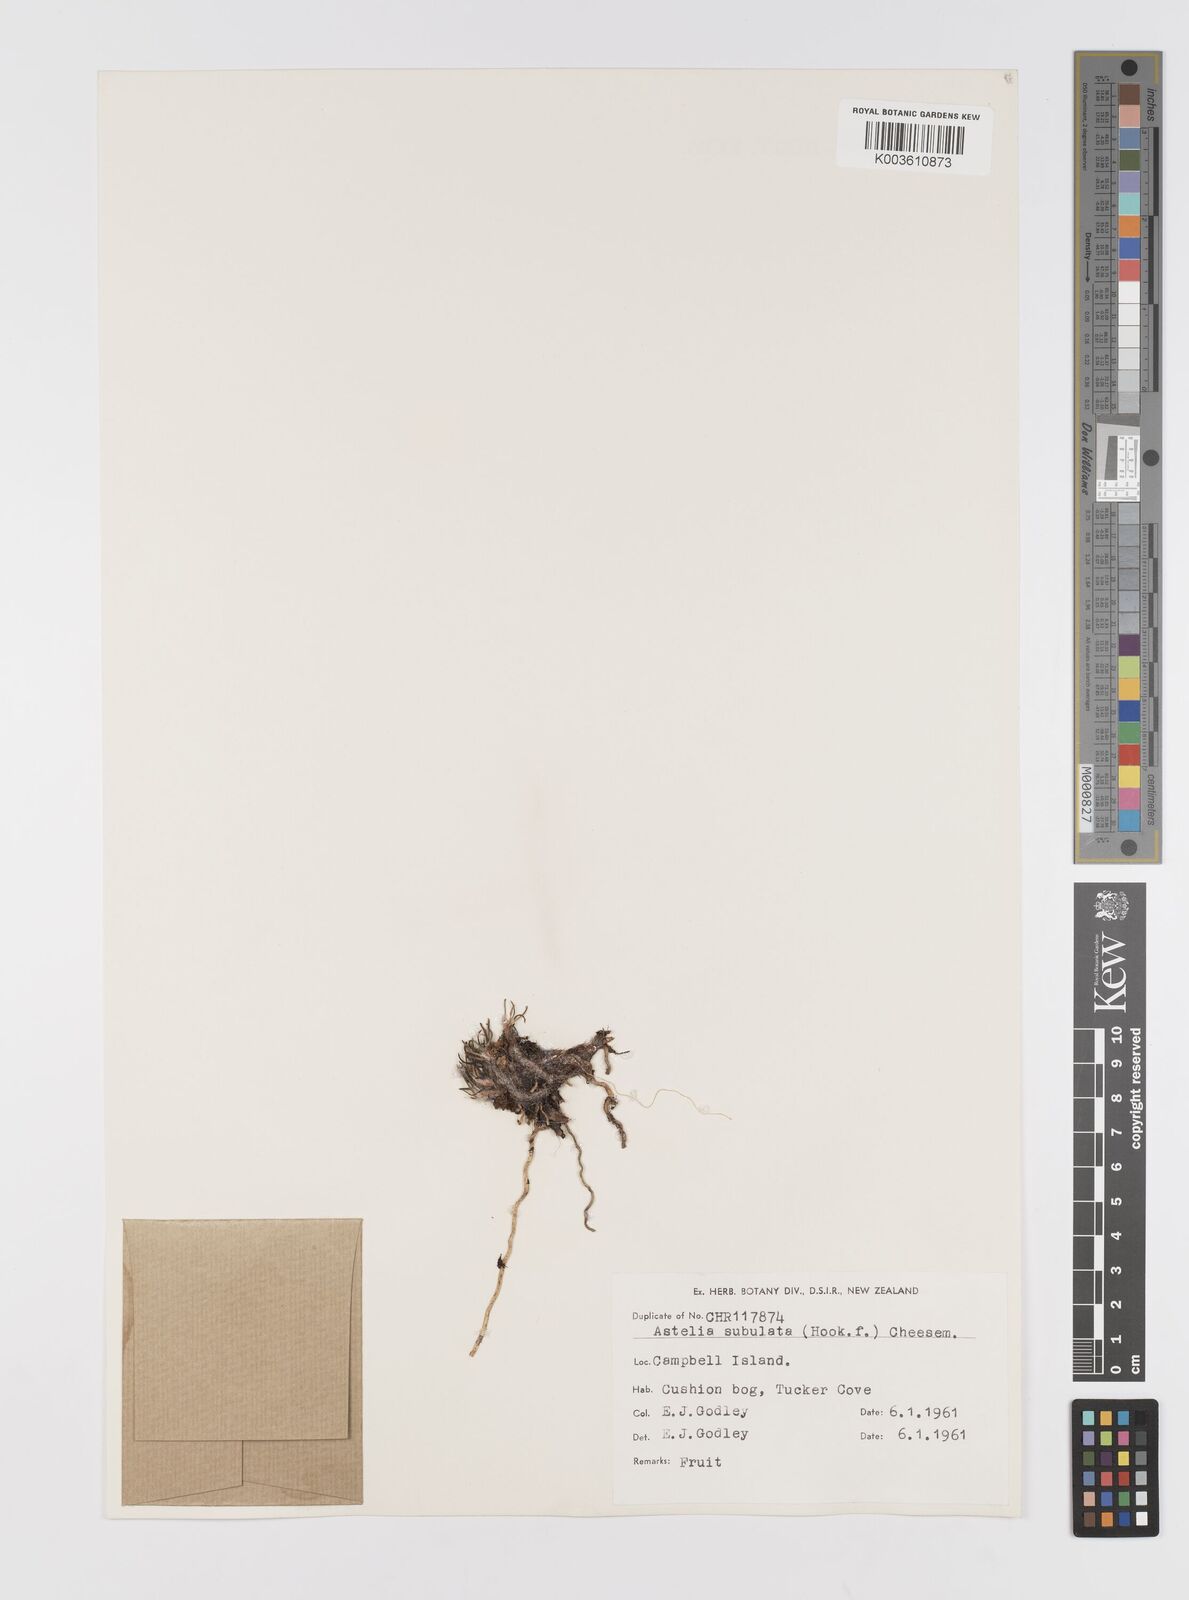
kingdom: Plantae
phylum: Tracheophyta
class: Liliopsida
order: Asparagales
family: Asteliaceae
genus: Astelia
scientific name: Astelia subulata
